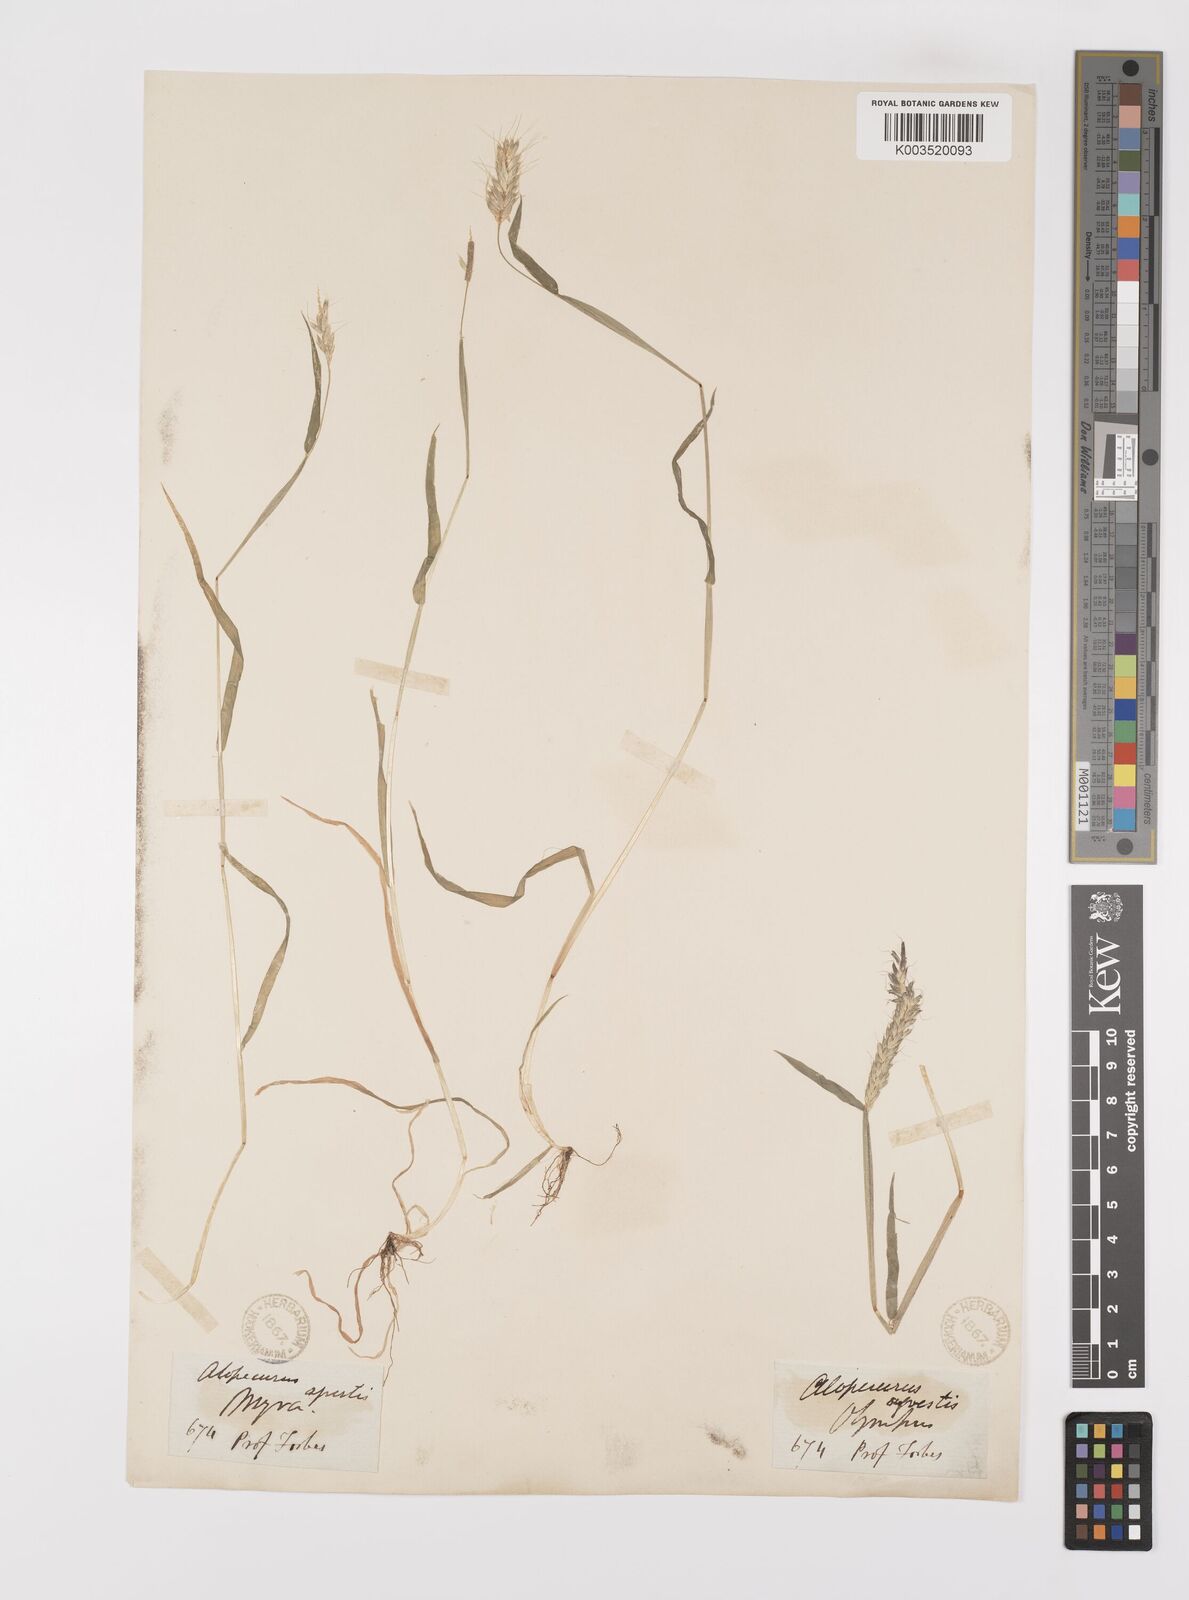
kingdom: Plantae
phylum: Tracheophyta
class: Liliopsida
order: Poales
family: Poaceae
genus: Alopecurus
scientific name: Alopecurus myosuroides
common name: Black-grass
